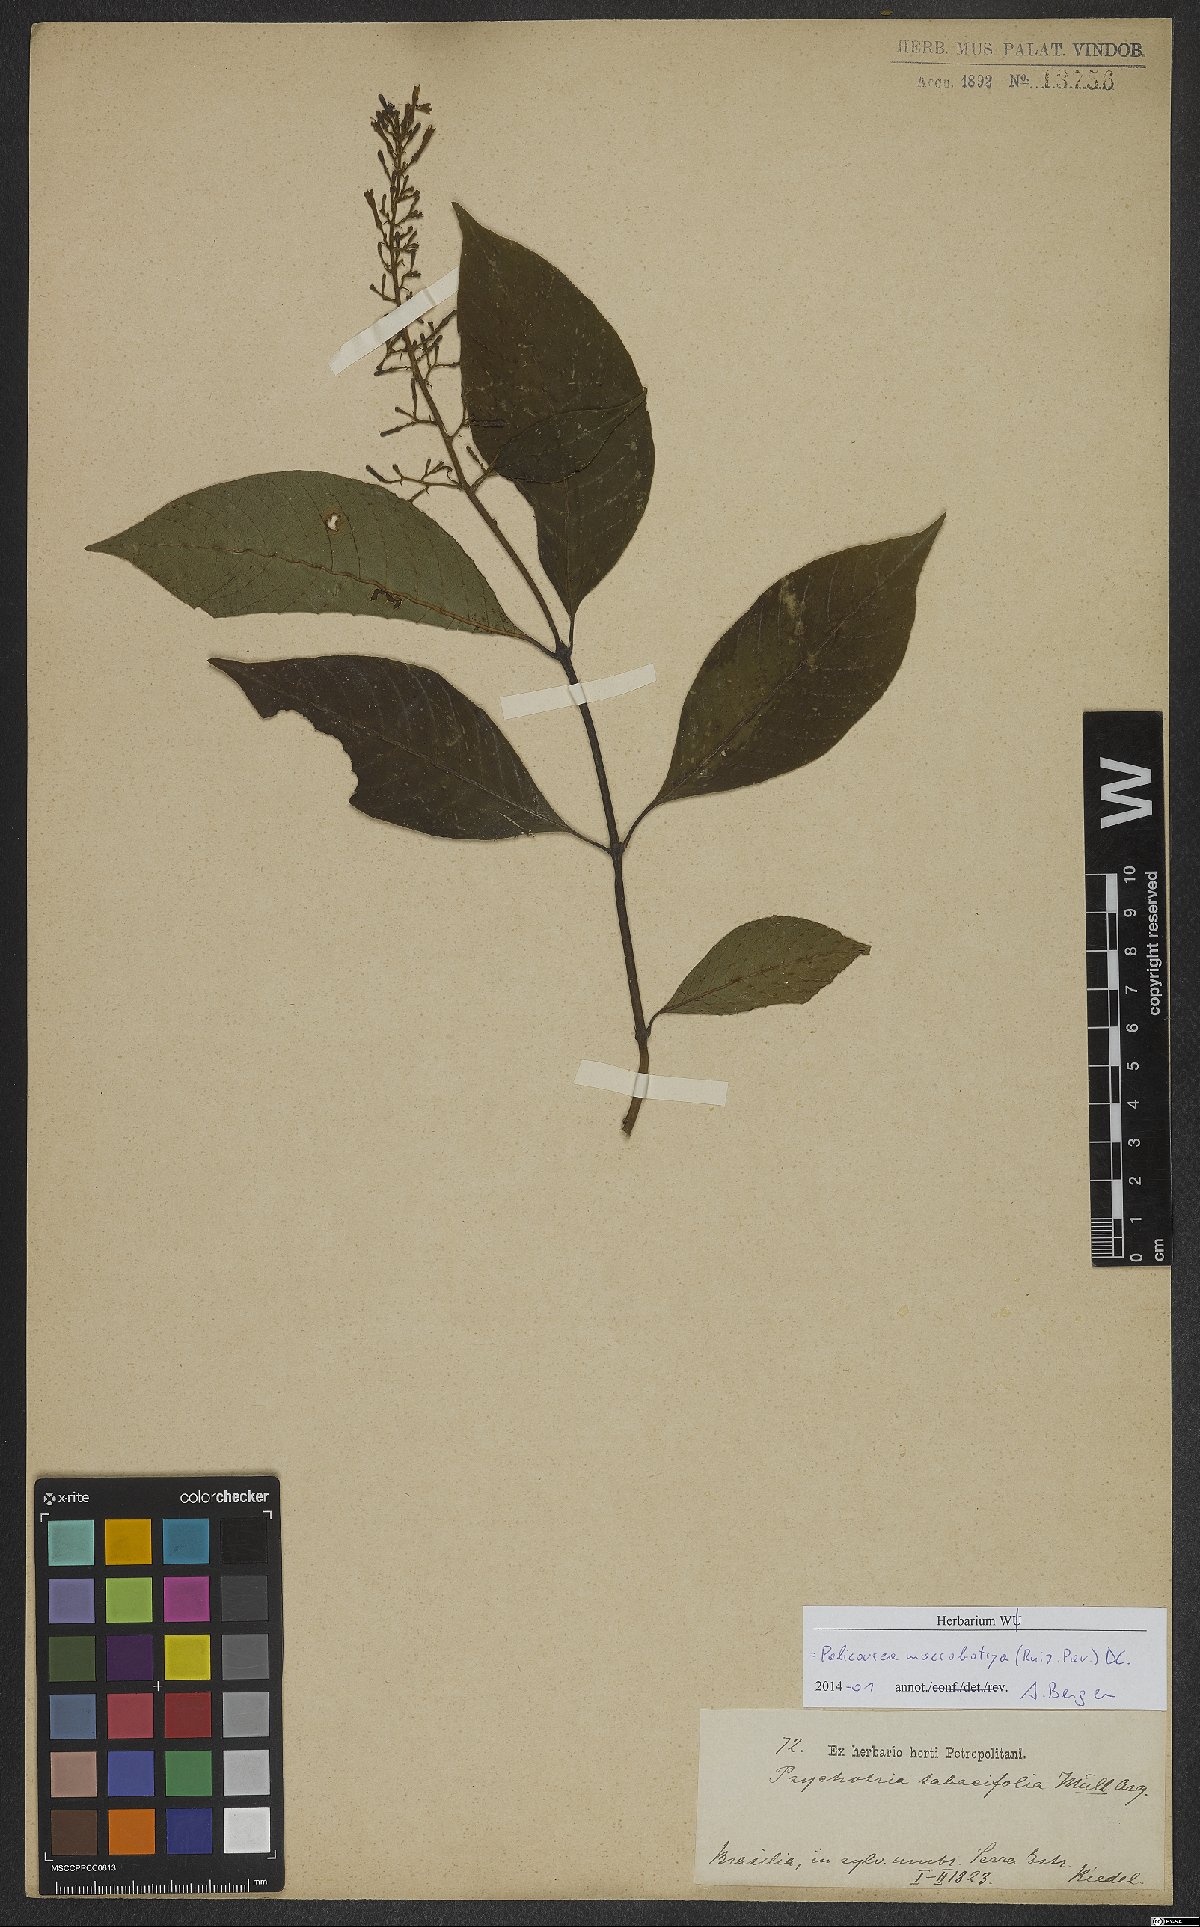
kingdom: Plantae
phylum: Tracheophyta
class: Magnoliopsida
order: Gentianales
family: Rubiaceae
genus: Palicourea
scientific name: Palicourea macrobotrys
